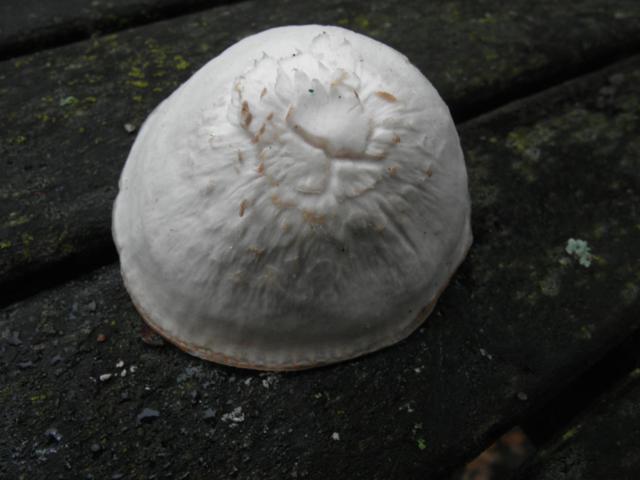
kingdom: Fungi
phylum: Basidiomycota
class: Agaricomycetes
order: Agaricales
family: Hygrophoraceae
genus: Cuphophyllus
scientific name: Cuphophyllus virgineus
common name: snehvid vokshat
